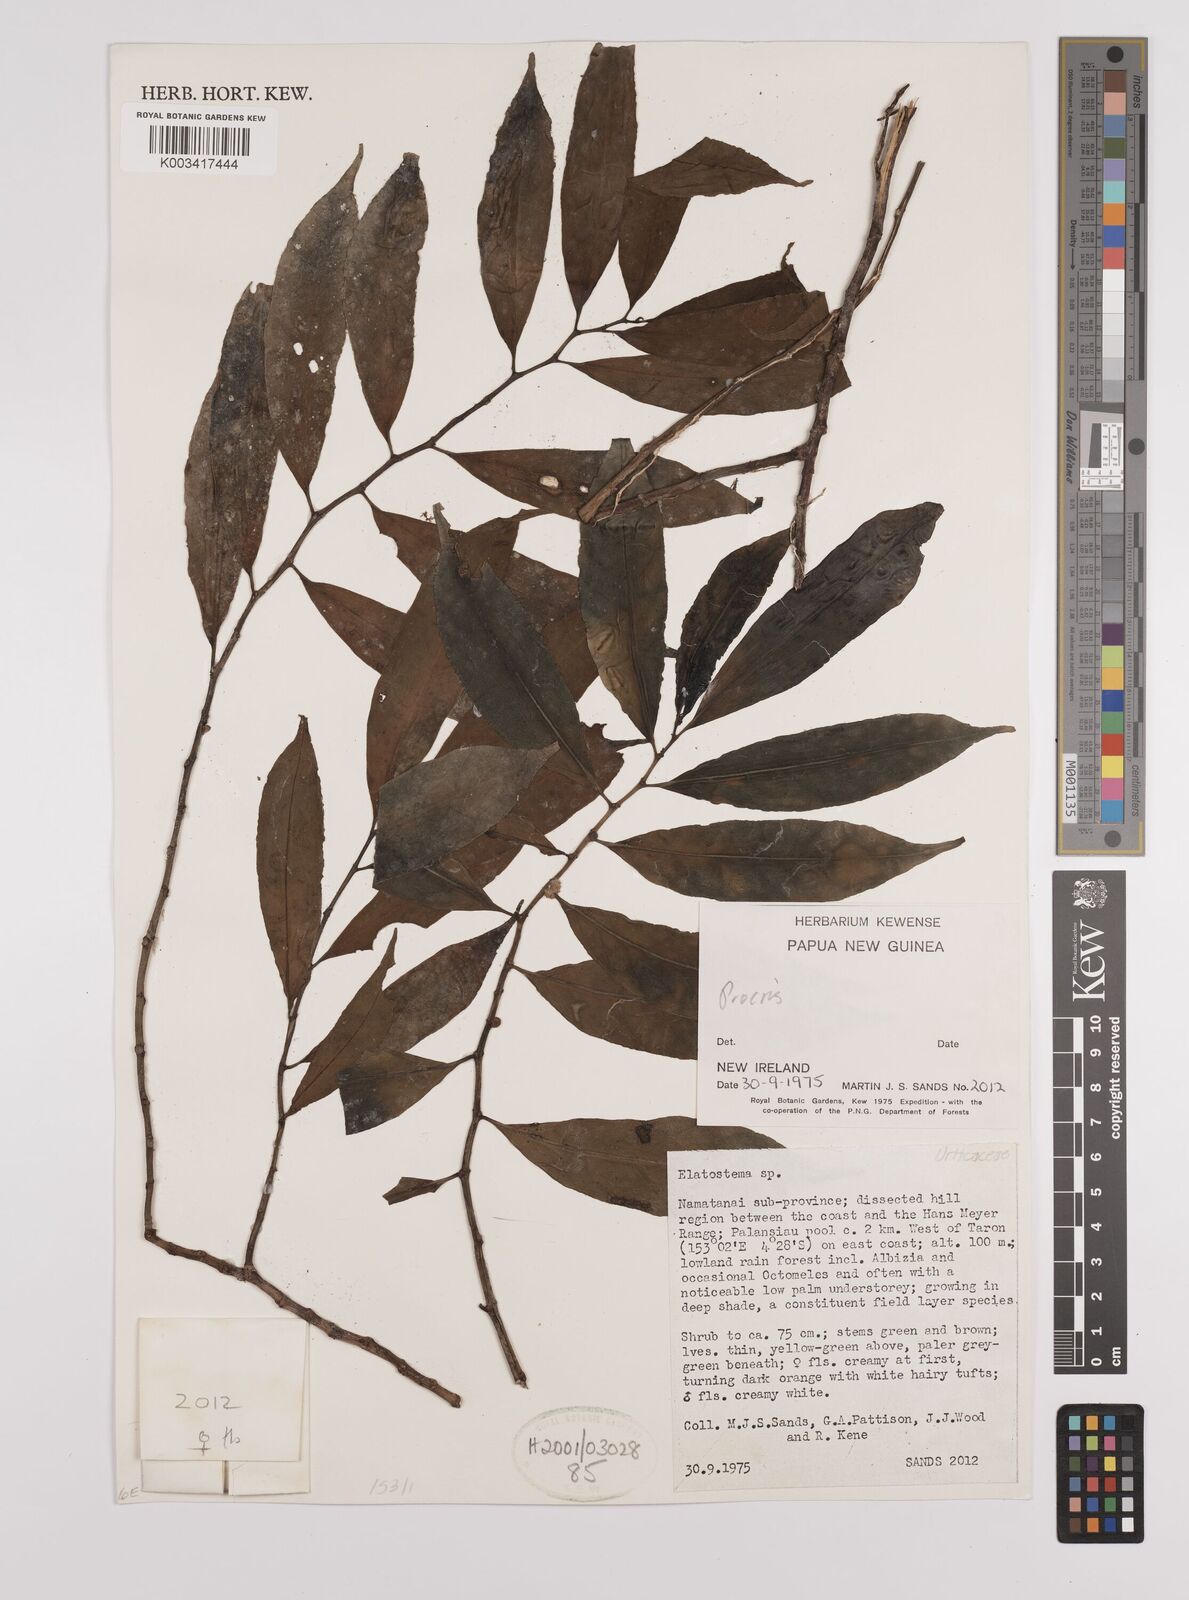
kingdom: Plantae
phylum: Tracheophyta
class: Magnoliopsida
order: Rosales
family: Urticaceae
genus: Procris
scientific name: Procris
